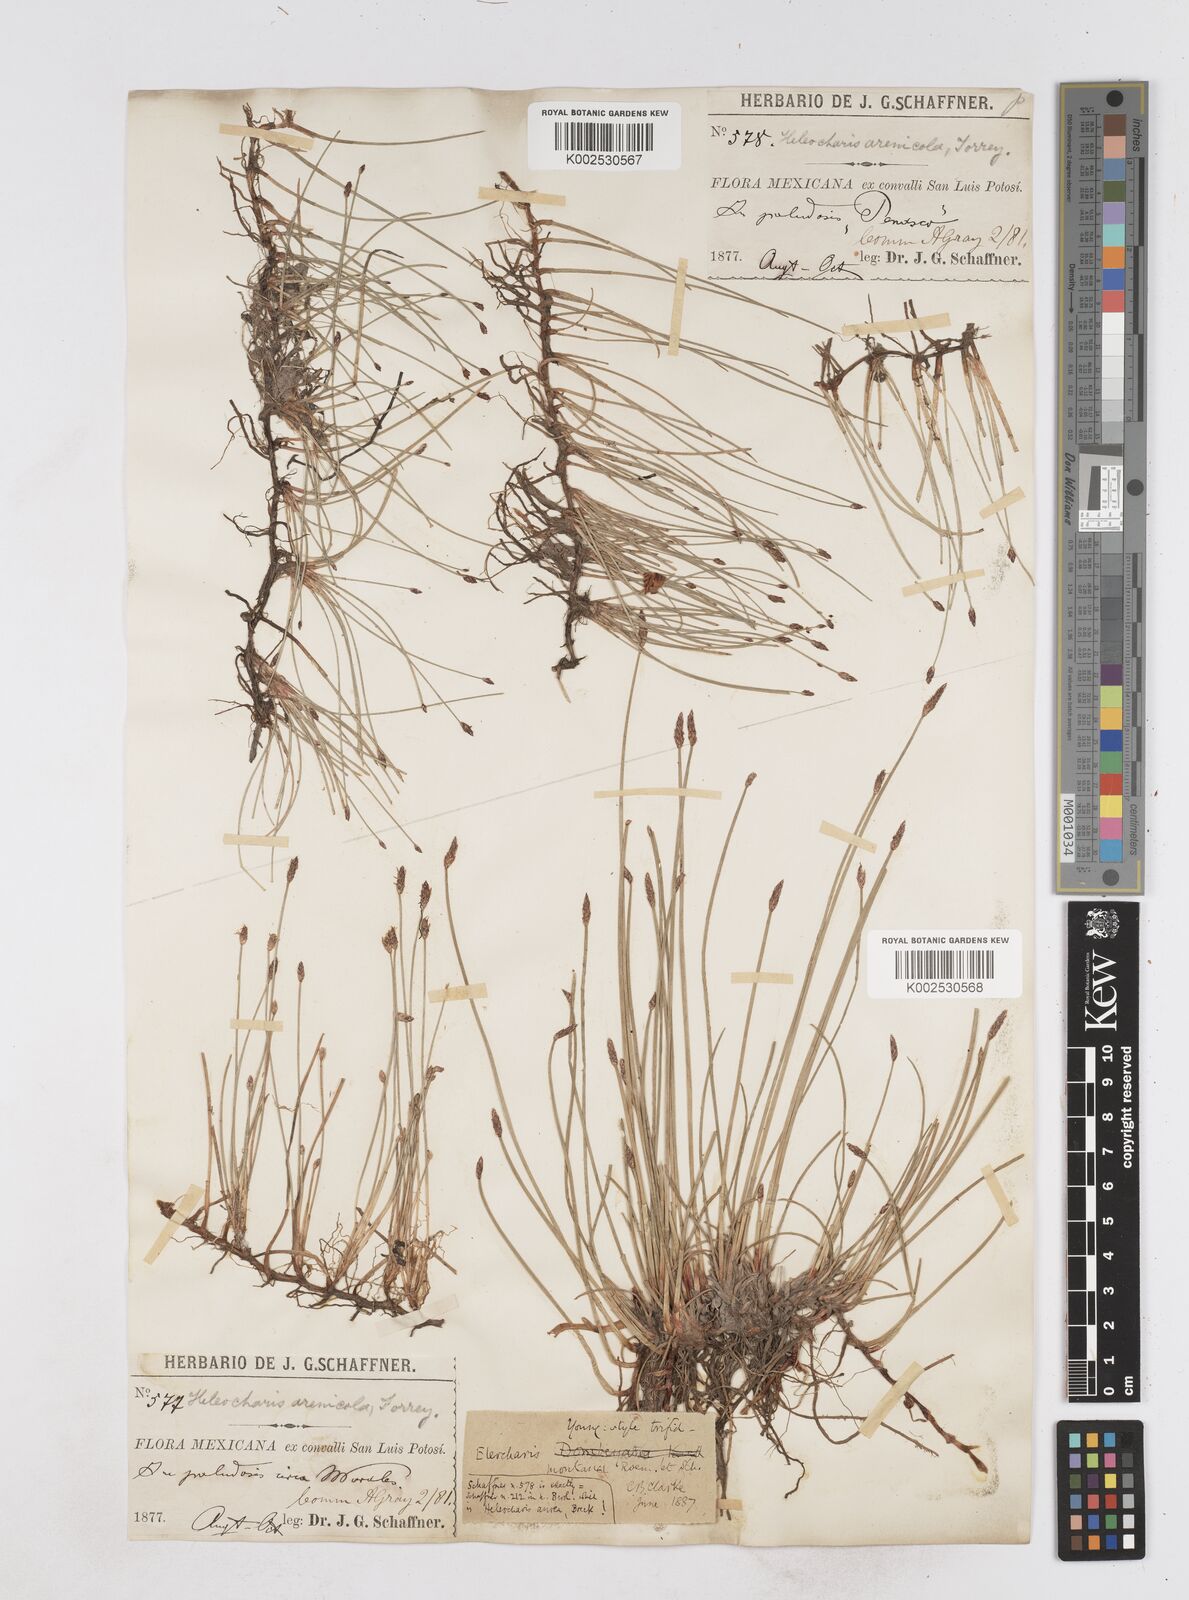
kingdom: Plantae
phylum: Tracheophyta
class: Liliopsida
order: Poales
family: Cyperaceae
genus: Eleocharis
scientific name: Eleocharis montana
